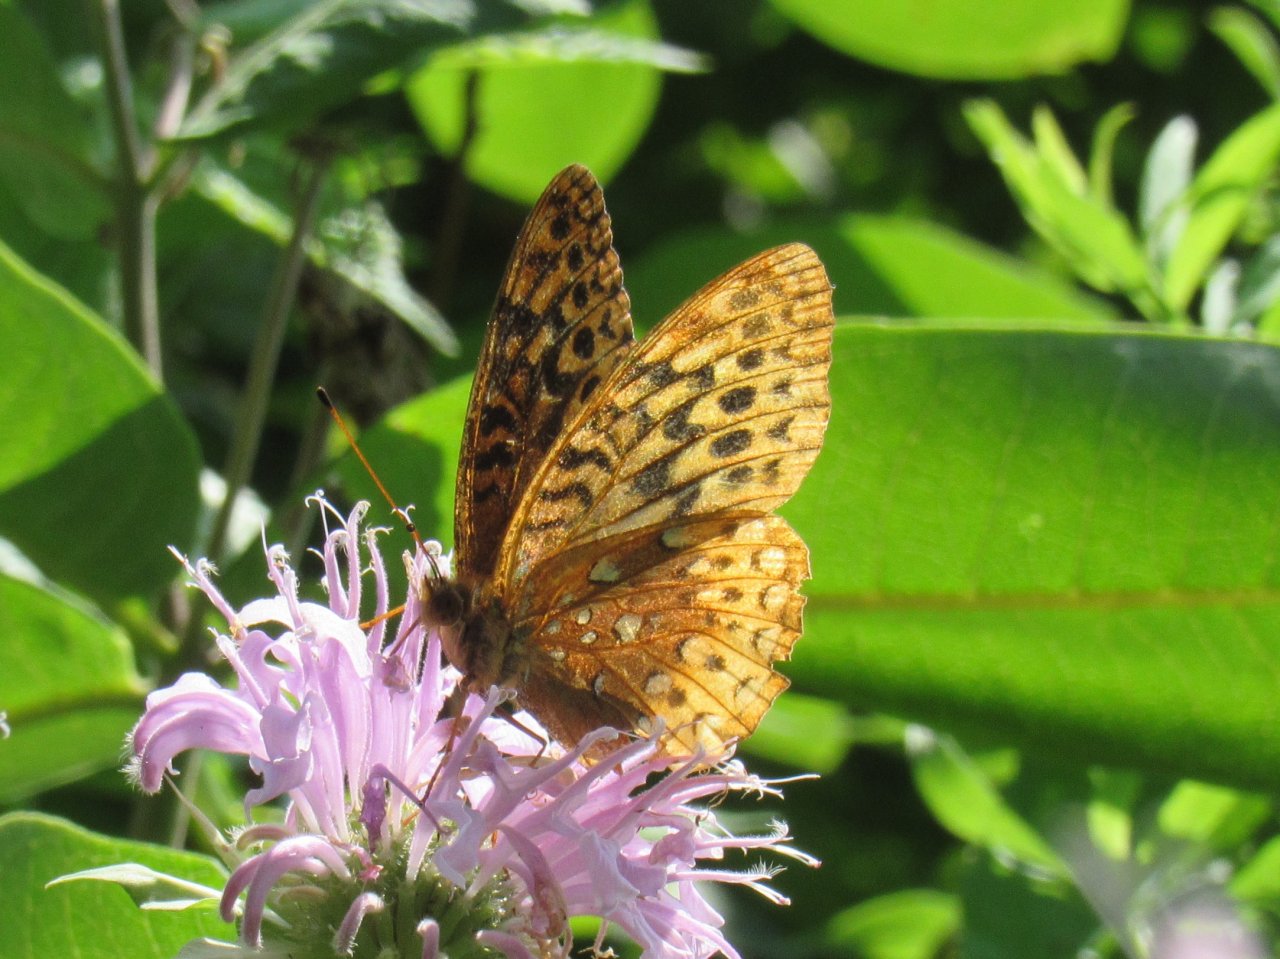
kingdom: Animalia
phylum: Arthropoda
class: Insecta
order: Lepidoptera
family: Nymphalidae
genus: Speyeria
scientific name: Speyeria cybele
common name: Great Spangled Fritillary
